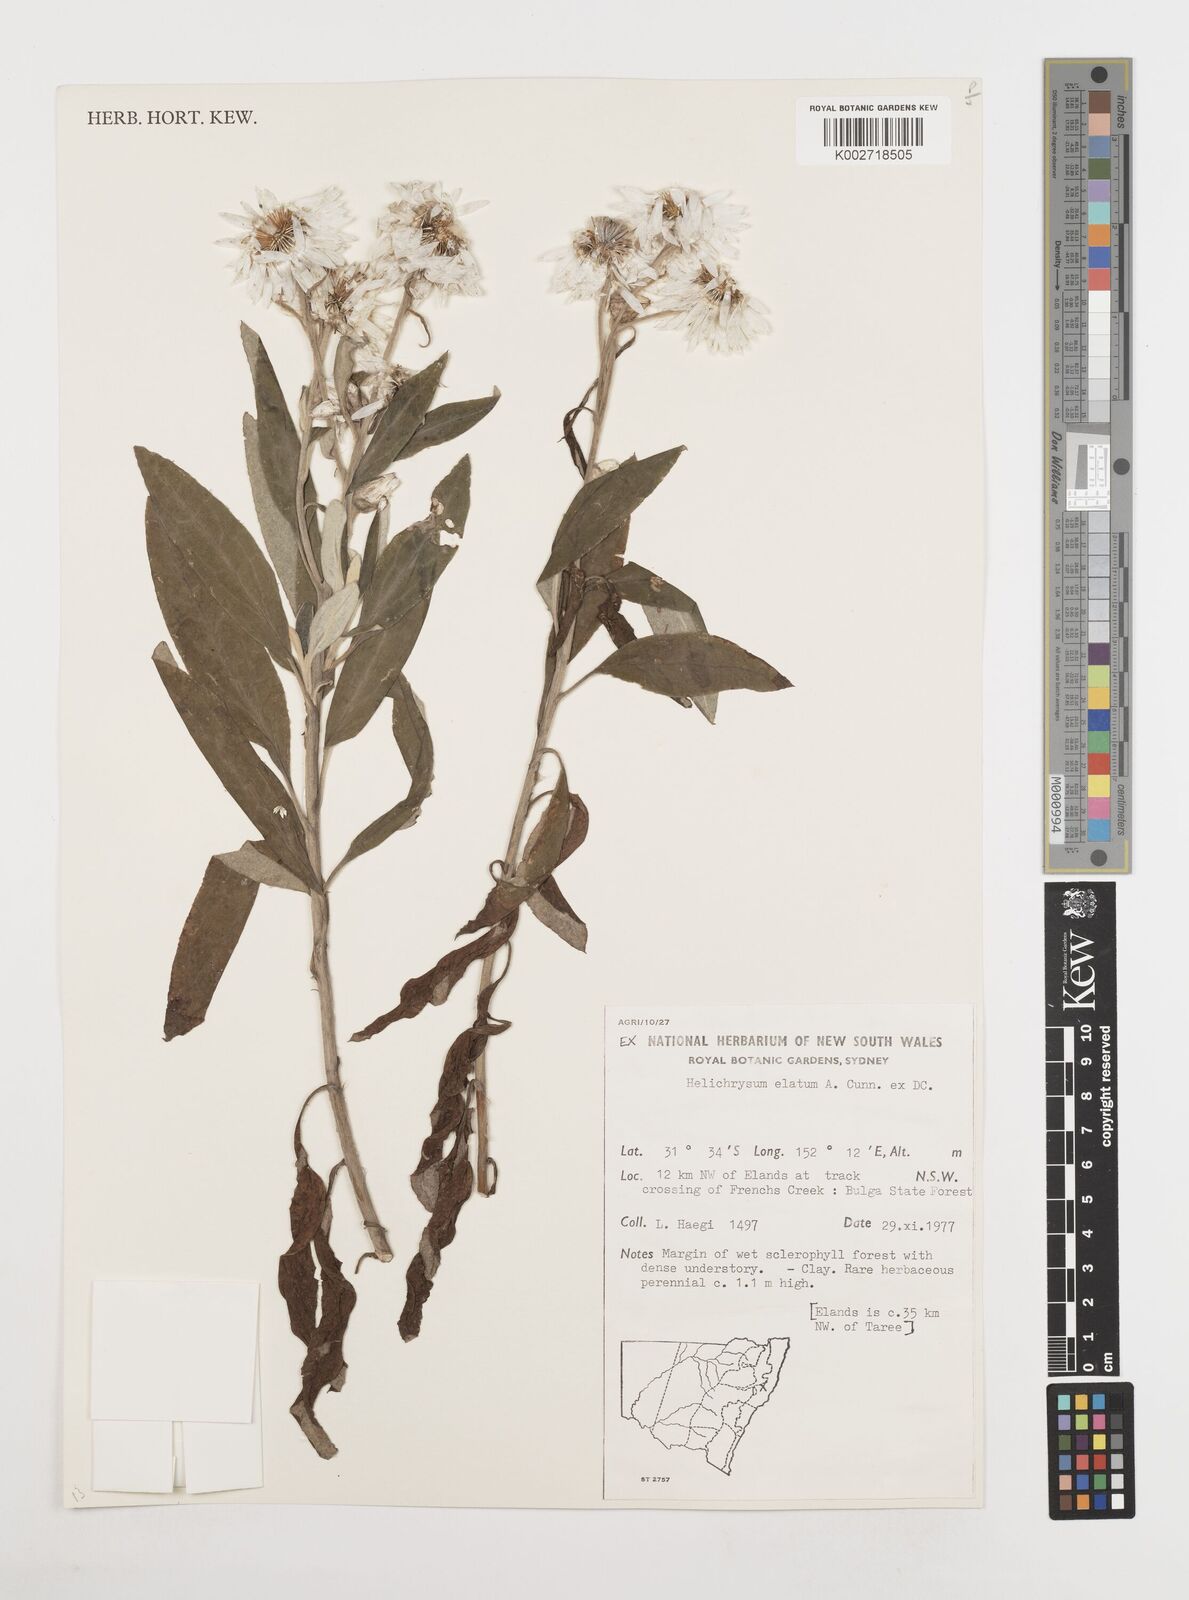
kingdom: Plantae
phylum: Tracheophyta
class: Magnoliopsida
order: Asterales
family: Asteraceae
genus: Leucozoma
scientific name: Leucozoma elatum
